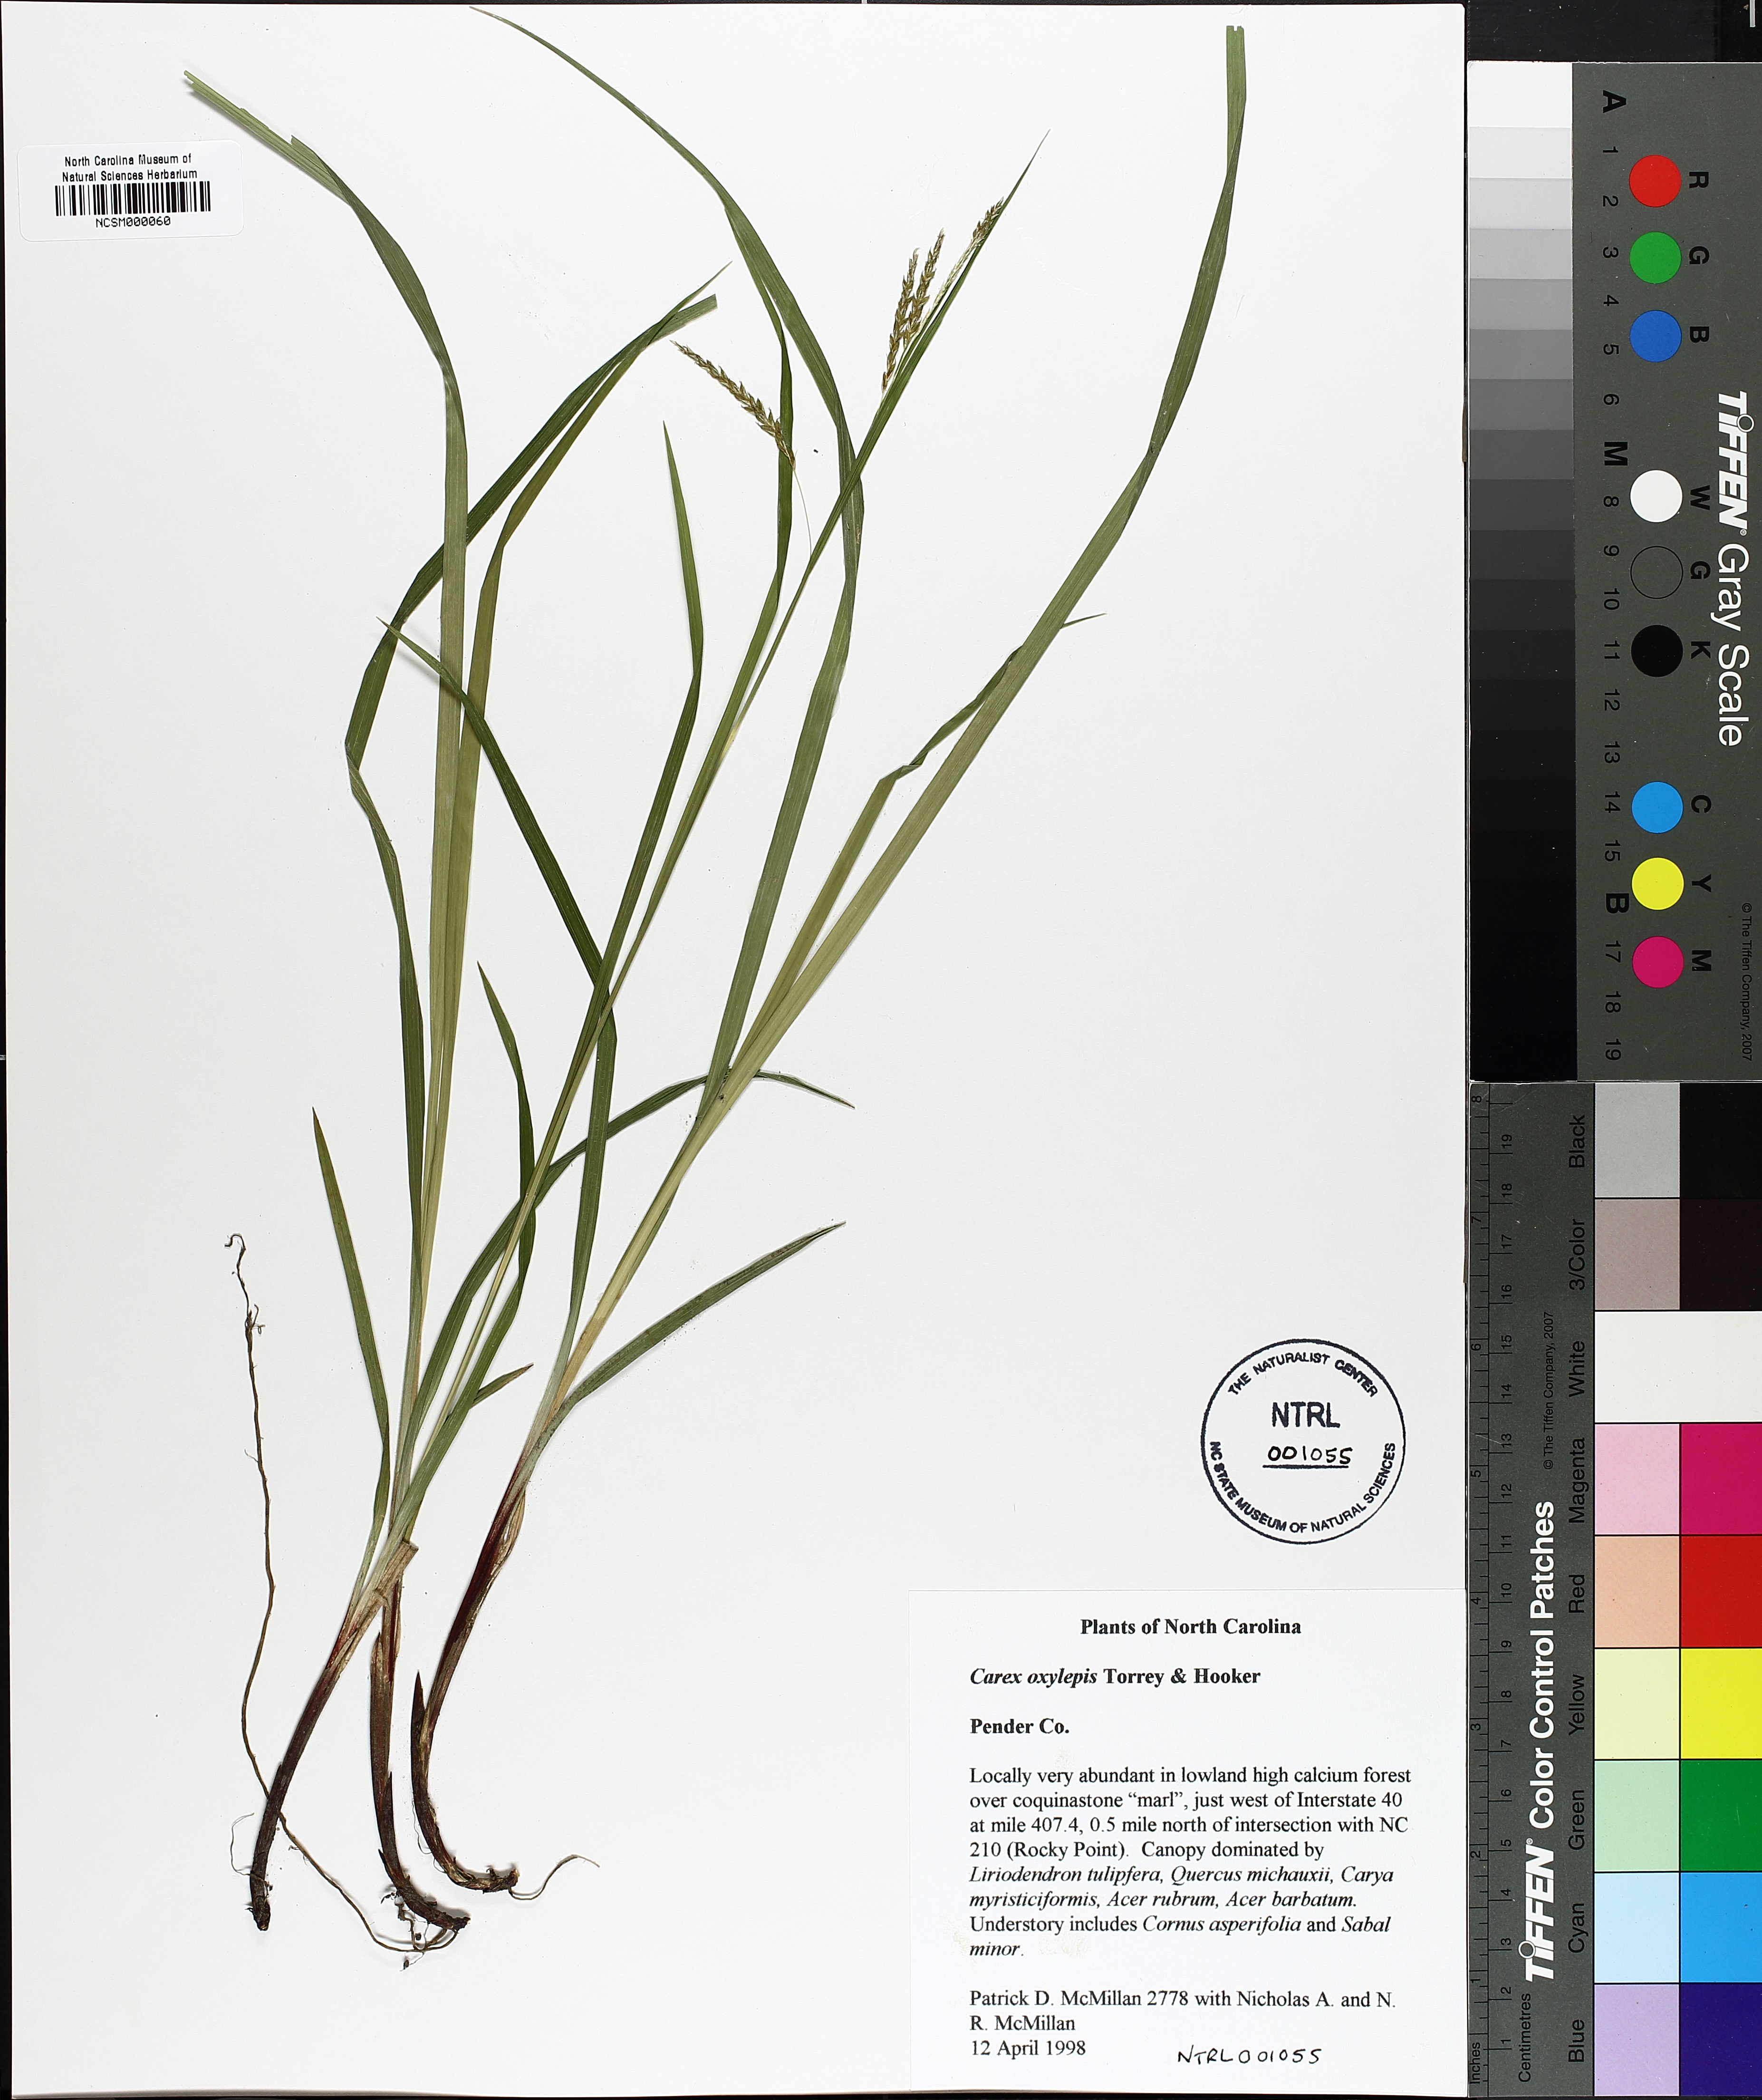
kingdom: Plantae
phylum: Tracheophyta
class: Liliopsida
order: Poales
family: Cyperaceae
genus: Carex
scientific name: Carex oxylepis
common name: Sharpscale sedge
